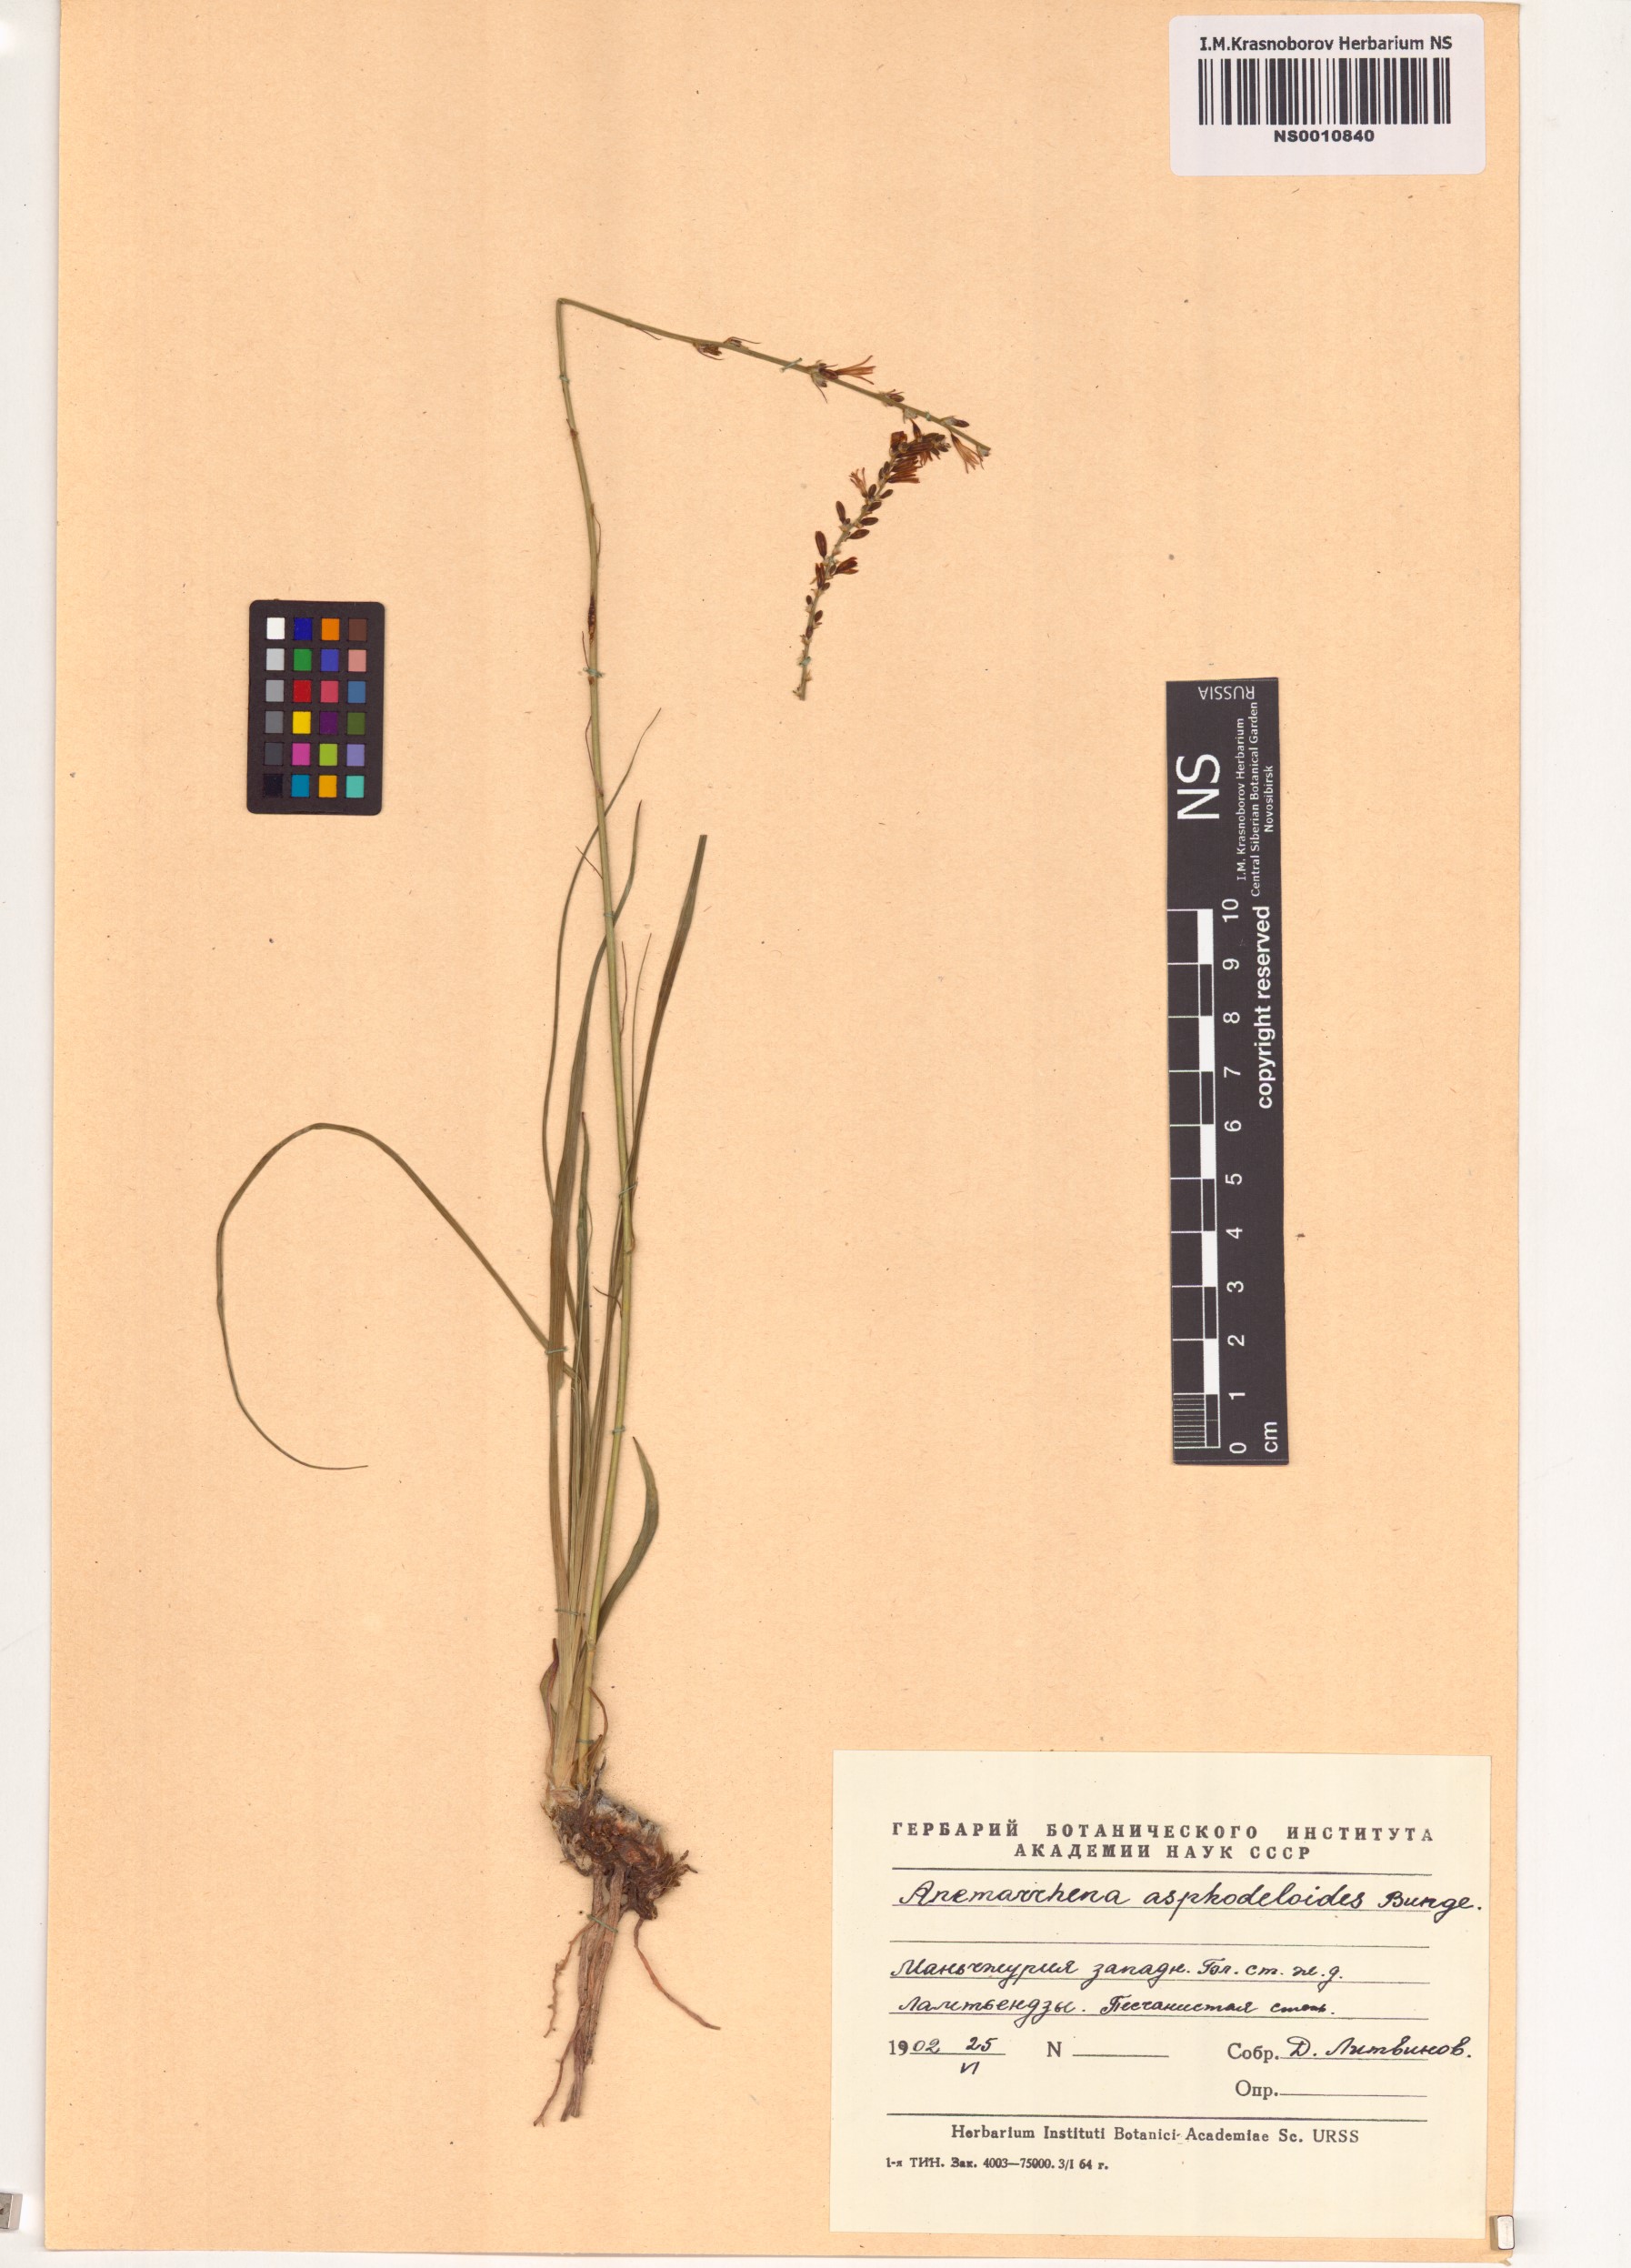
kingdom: Plantae
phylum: Tracheophyta
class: Liliopsida
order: Asparagales
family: Asparagaceae
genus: Anemarrhena
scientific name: Anemarrhena asphodeloides
